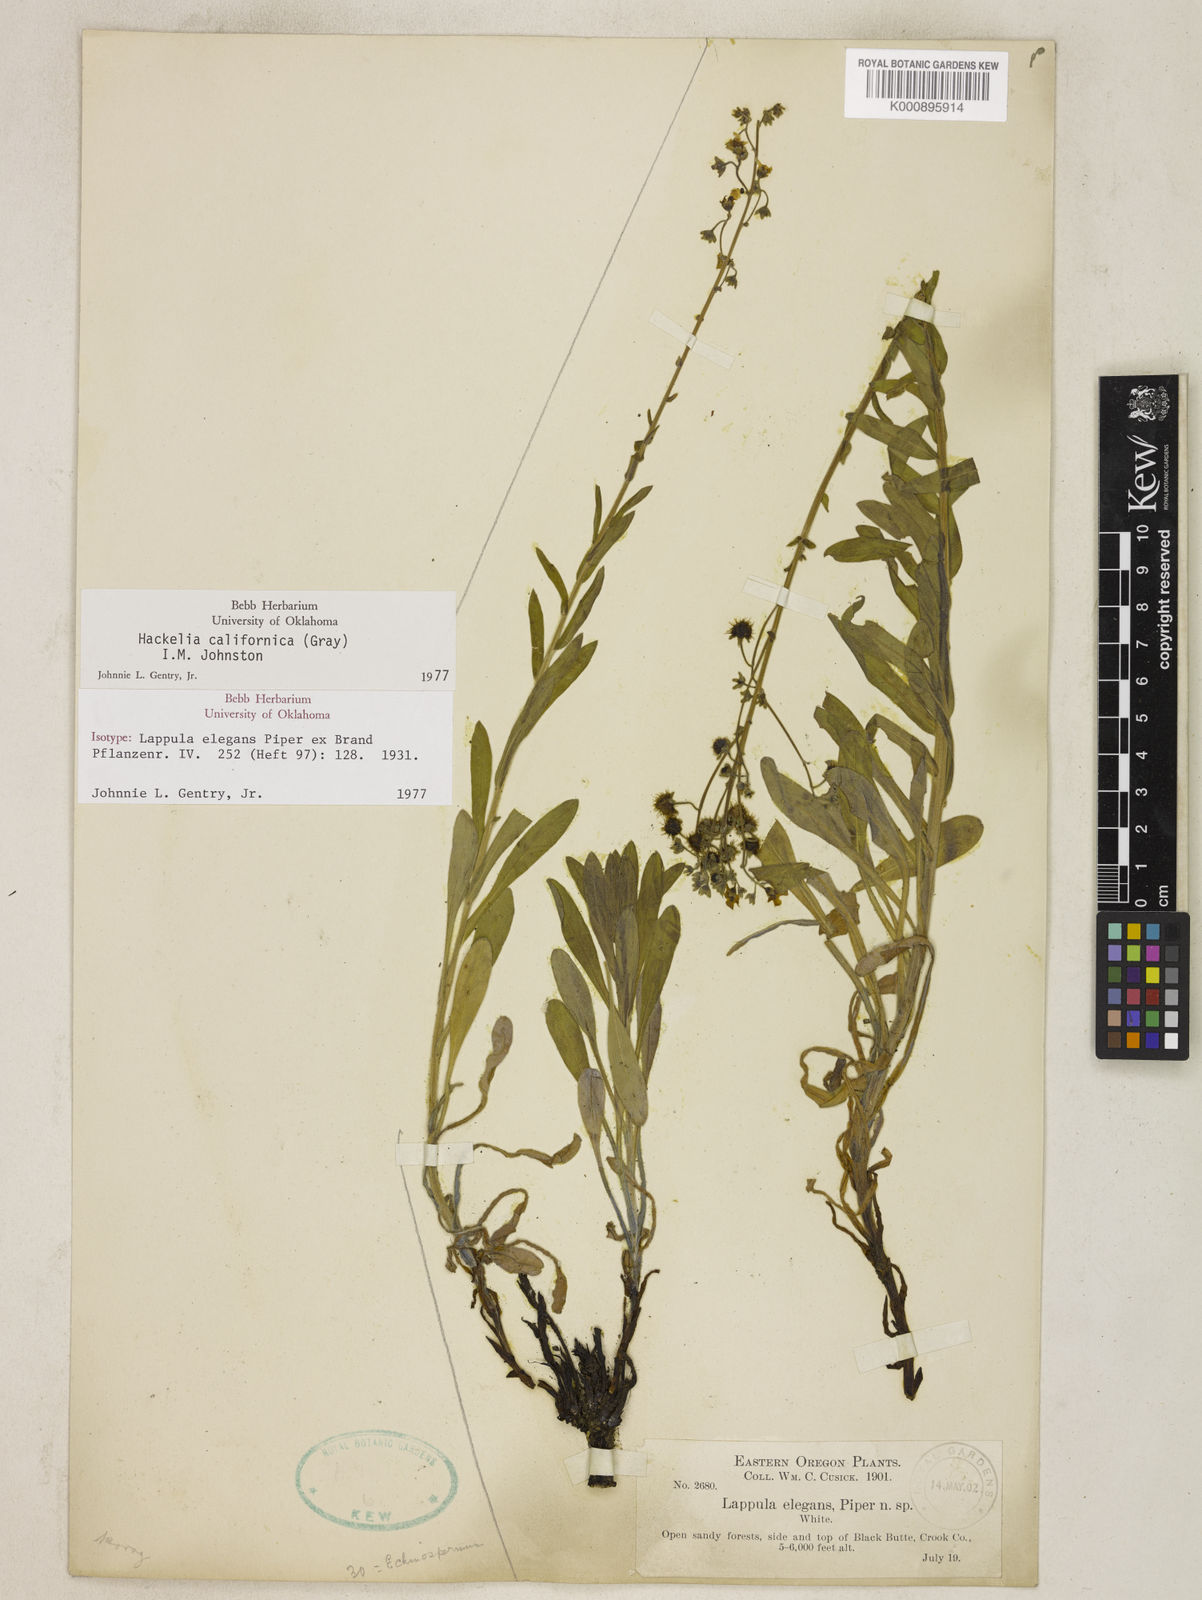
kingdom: Plantae
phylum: Tracheophyta
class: Magnoliopsida
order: Boraginales
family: Boraginaceae
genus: Hackelia
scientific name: Hackelia californica
